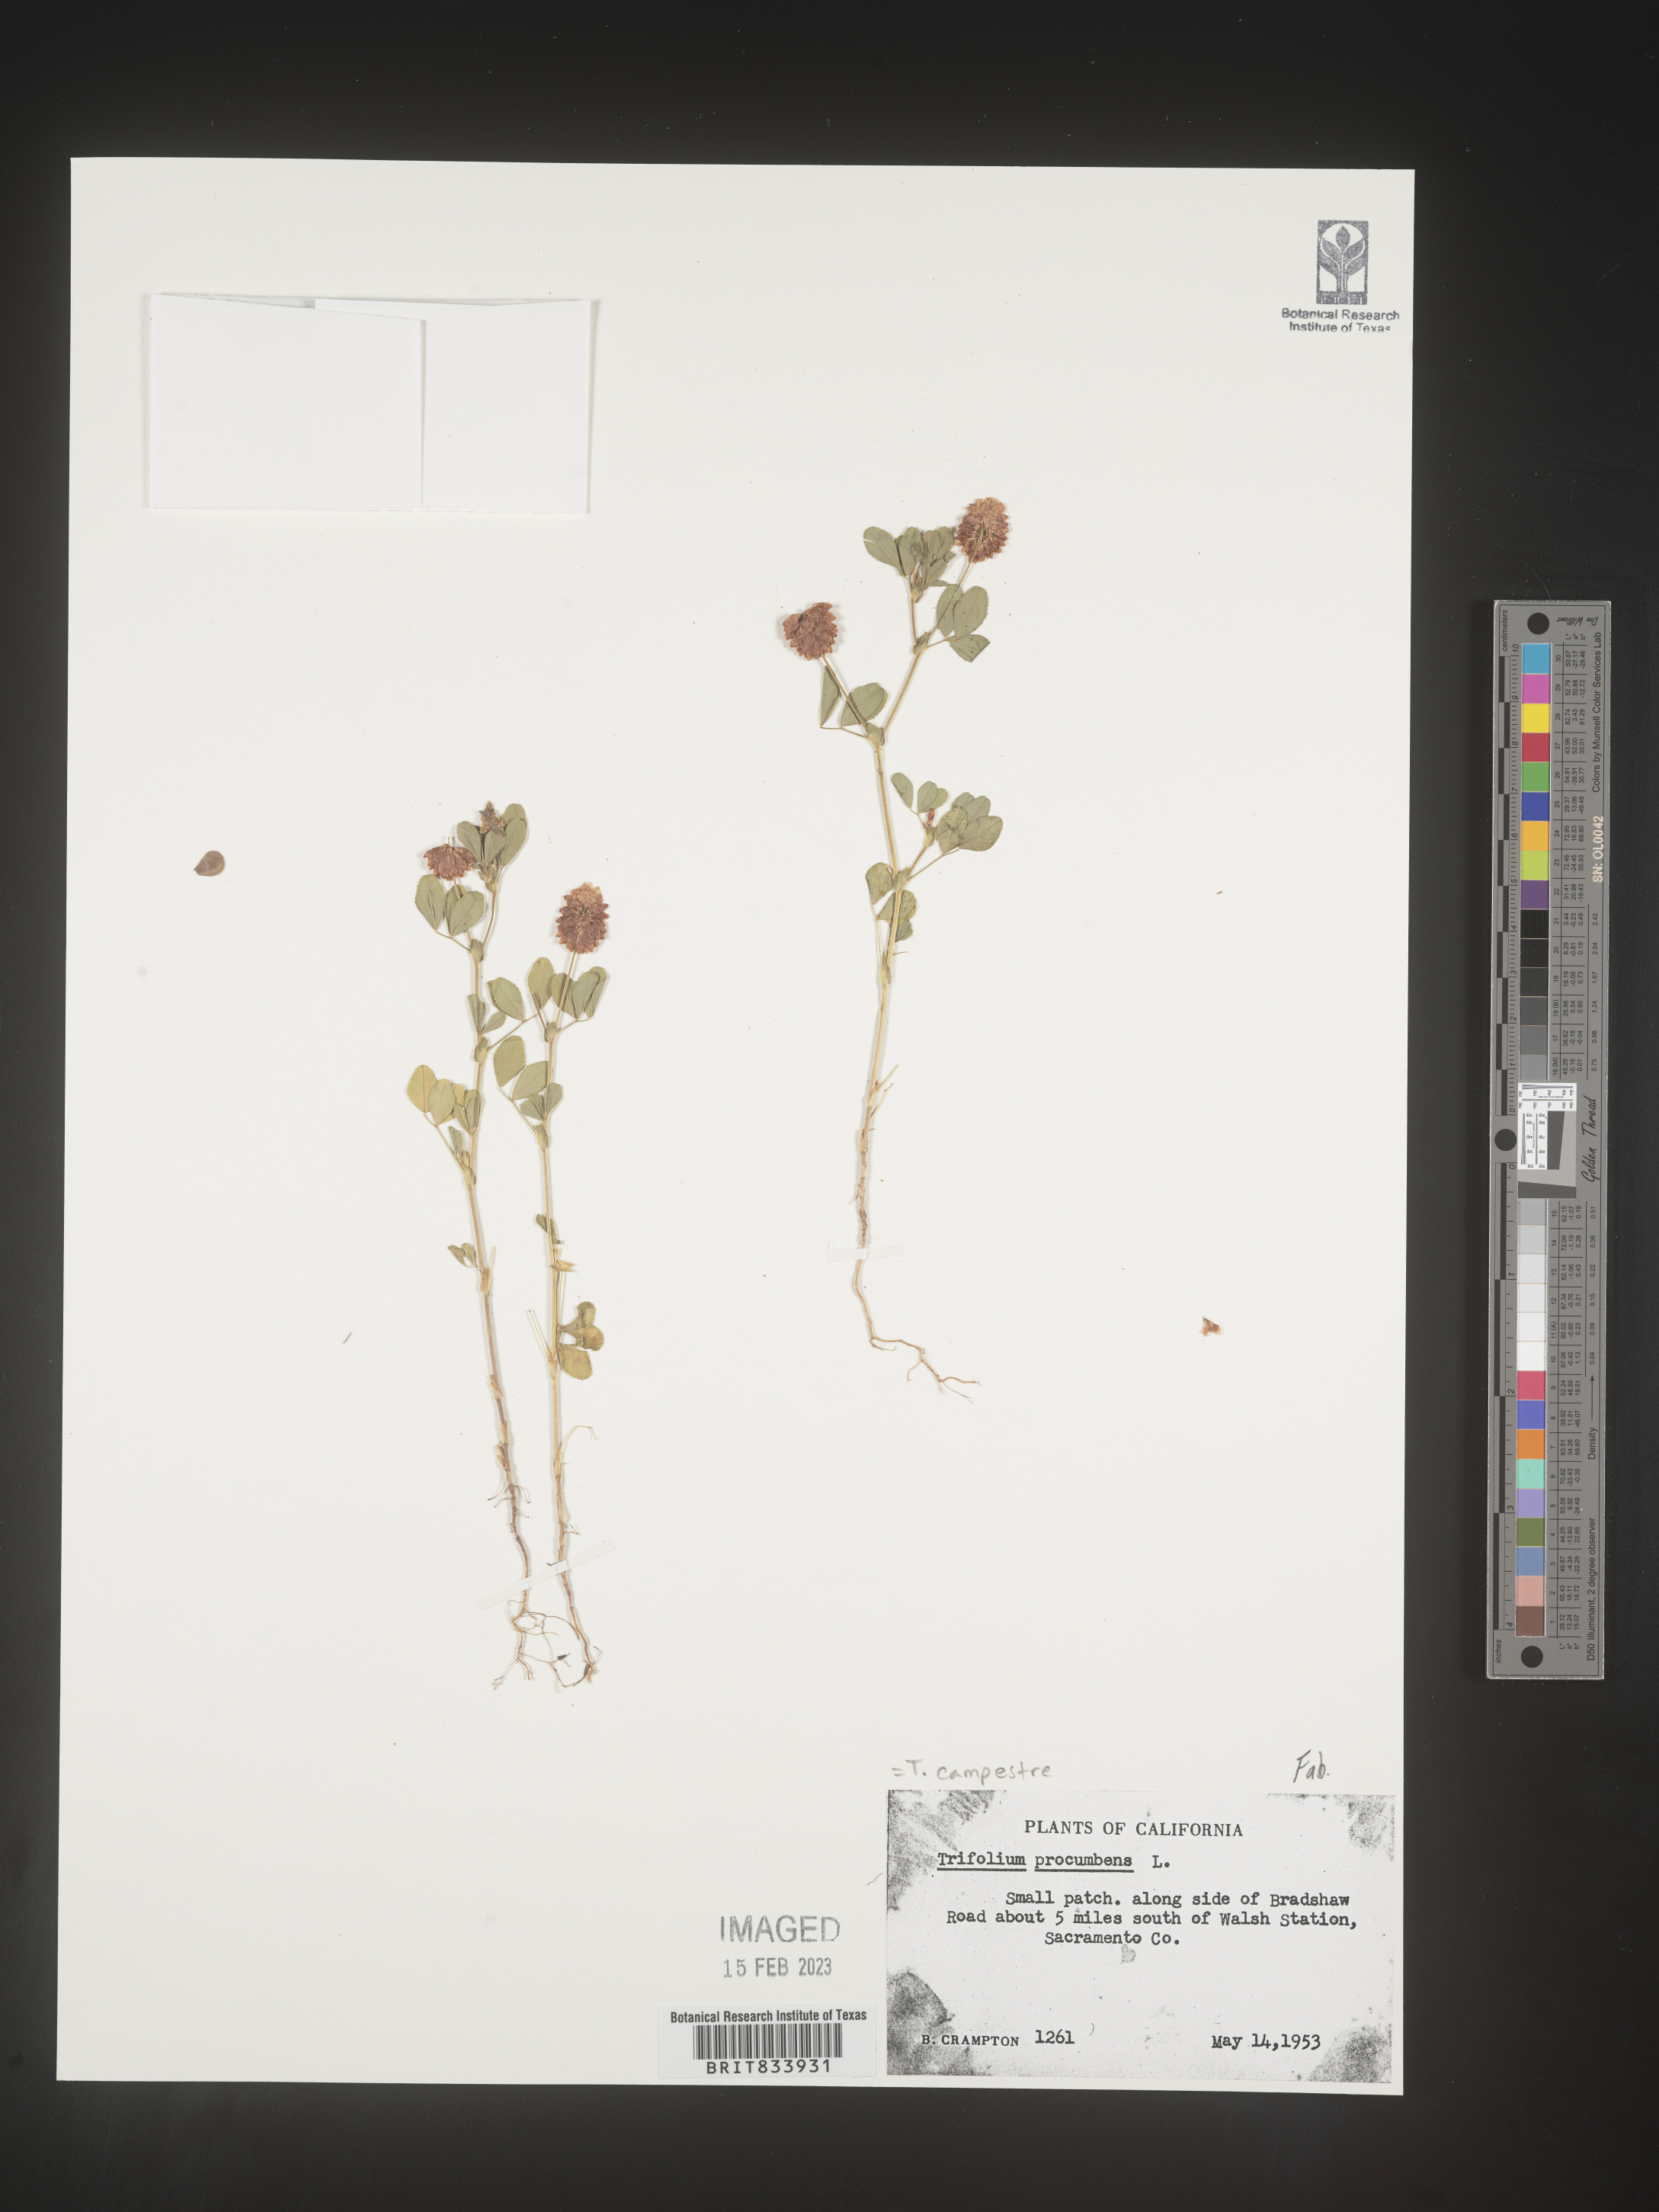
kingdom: Plantae
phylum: Tracheophyta
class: Magnoliopsida
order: Fabales
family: Fabaceae
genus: Trifolium
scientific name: Trifolium campestre
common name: Field clover
